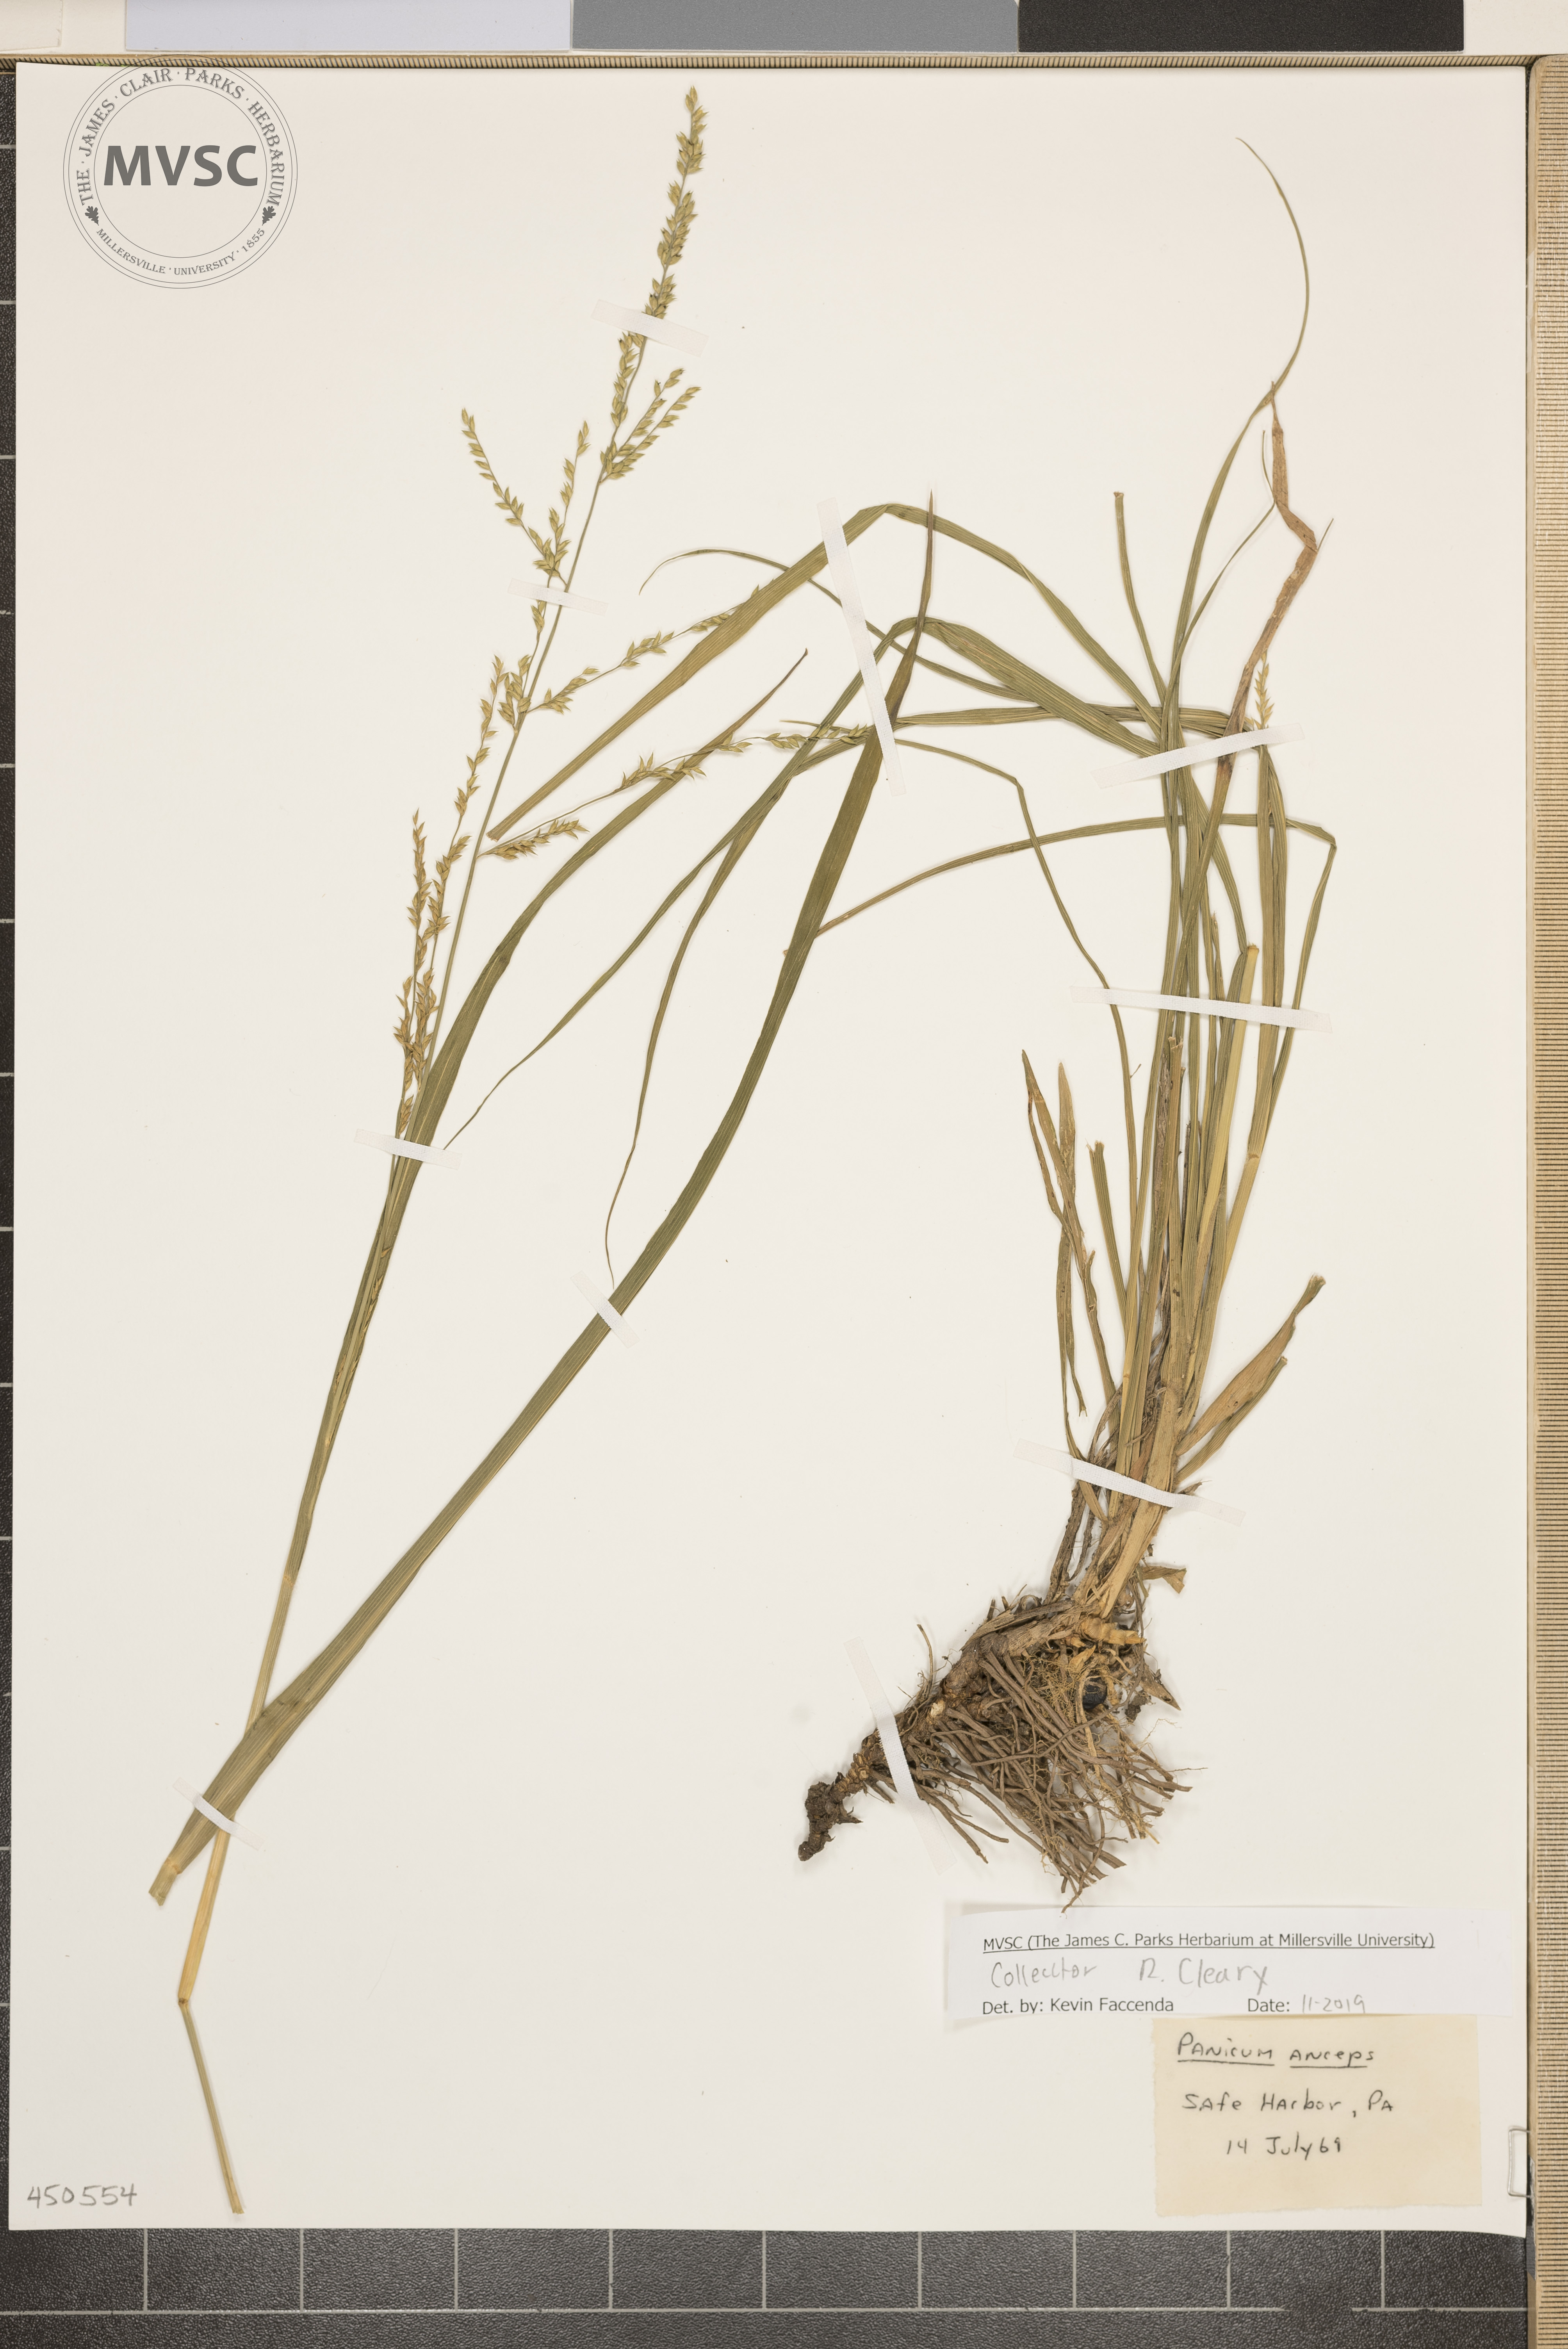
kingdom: Plantae
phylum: Tracheophyta
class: Liliopsida
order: Poales
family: Poaceae
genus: Coleataenia
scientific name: Coleataenia anceps
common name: Beaked panic grass
